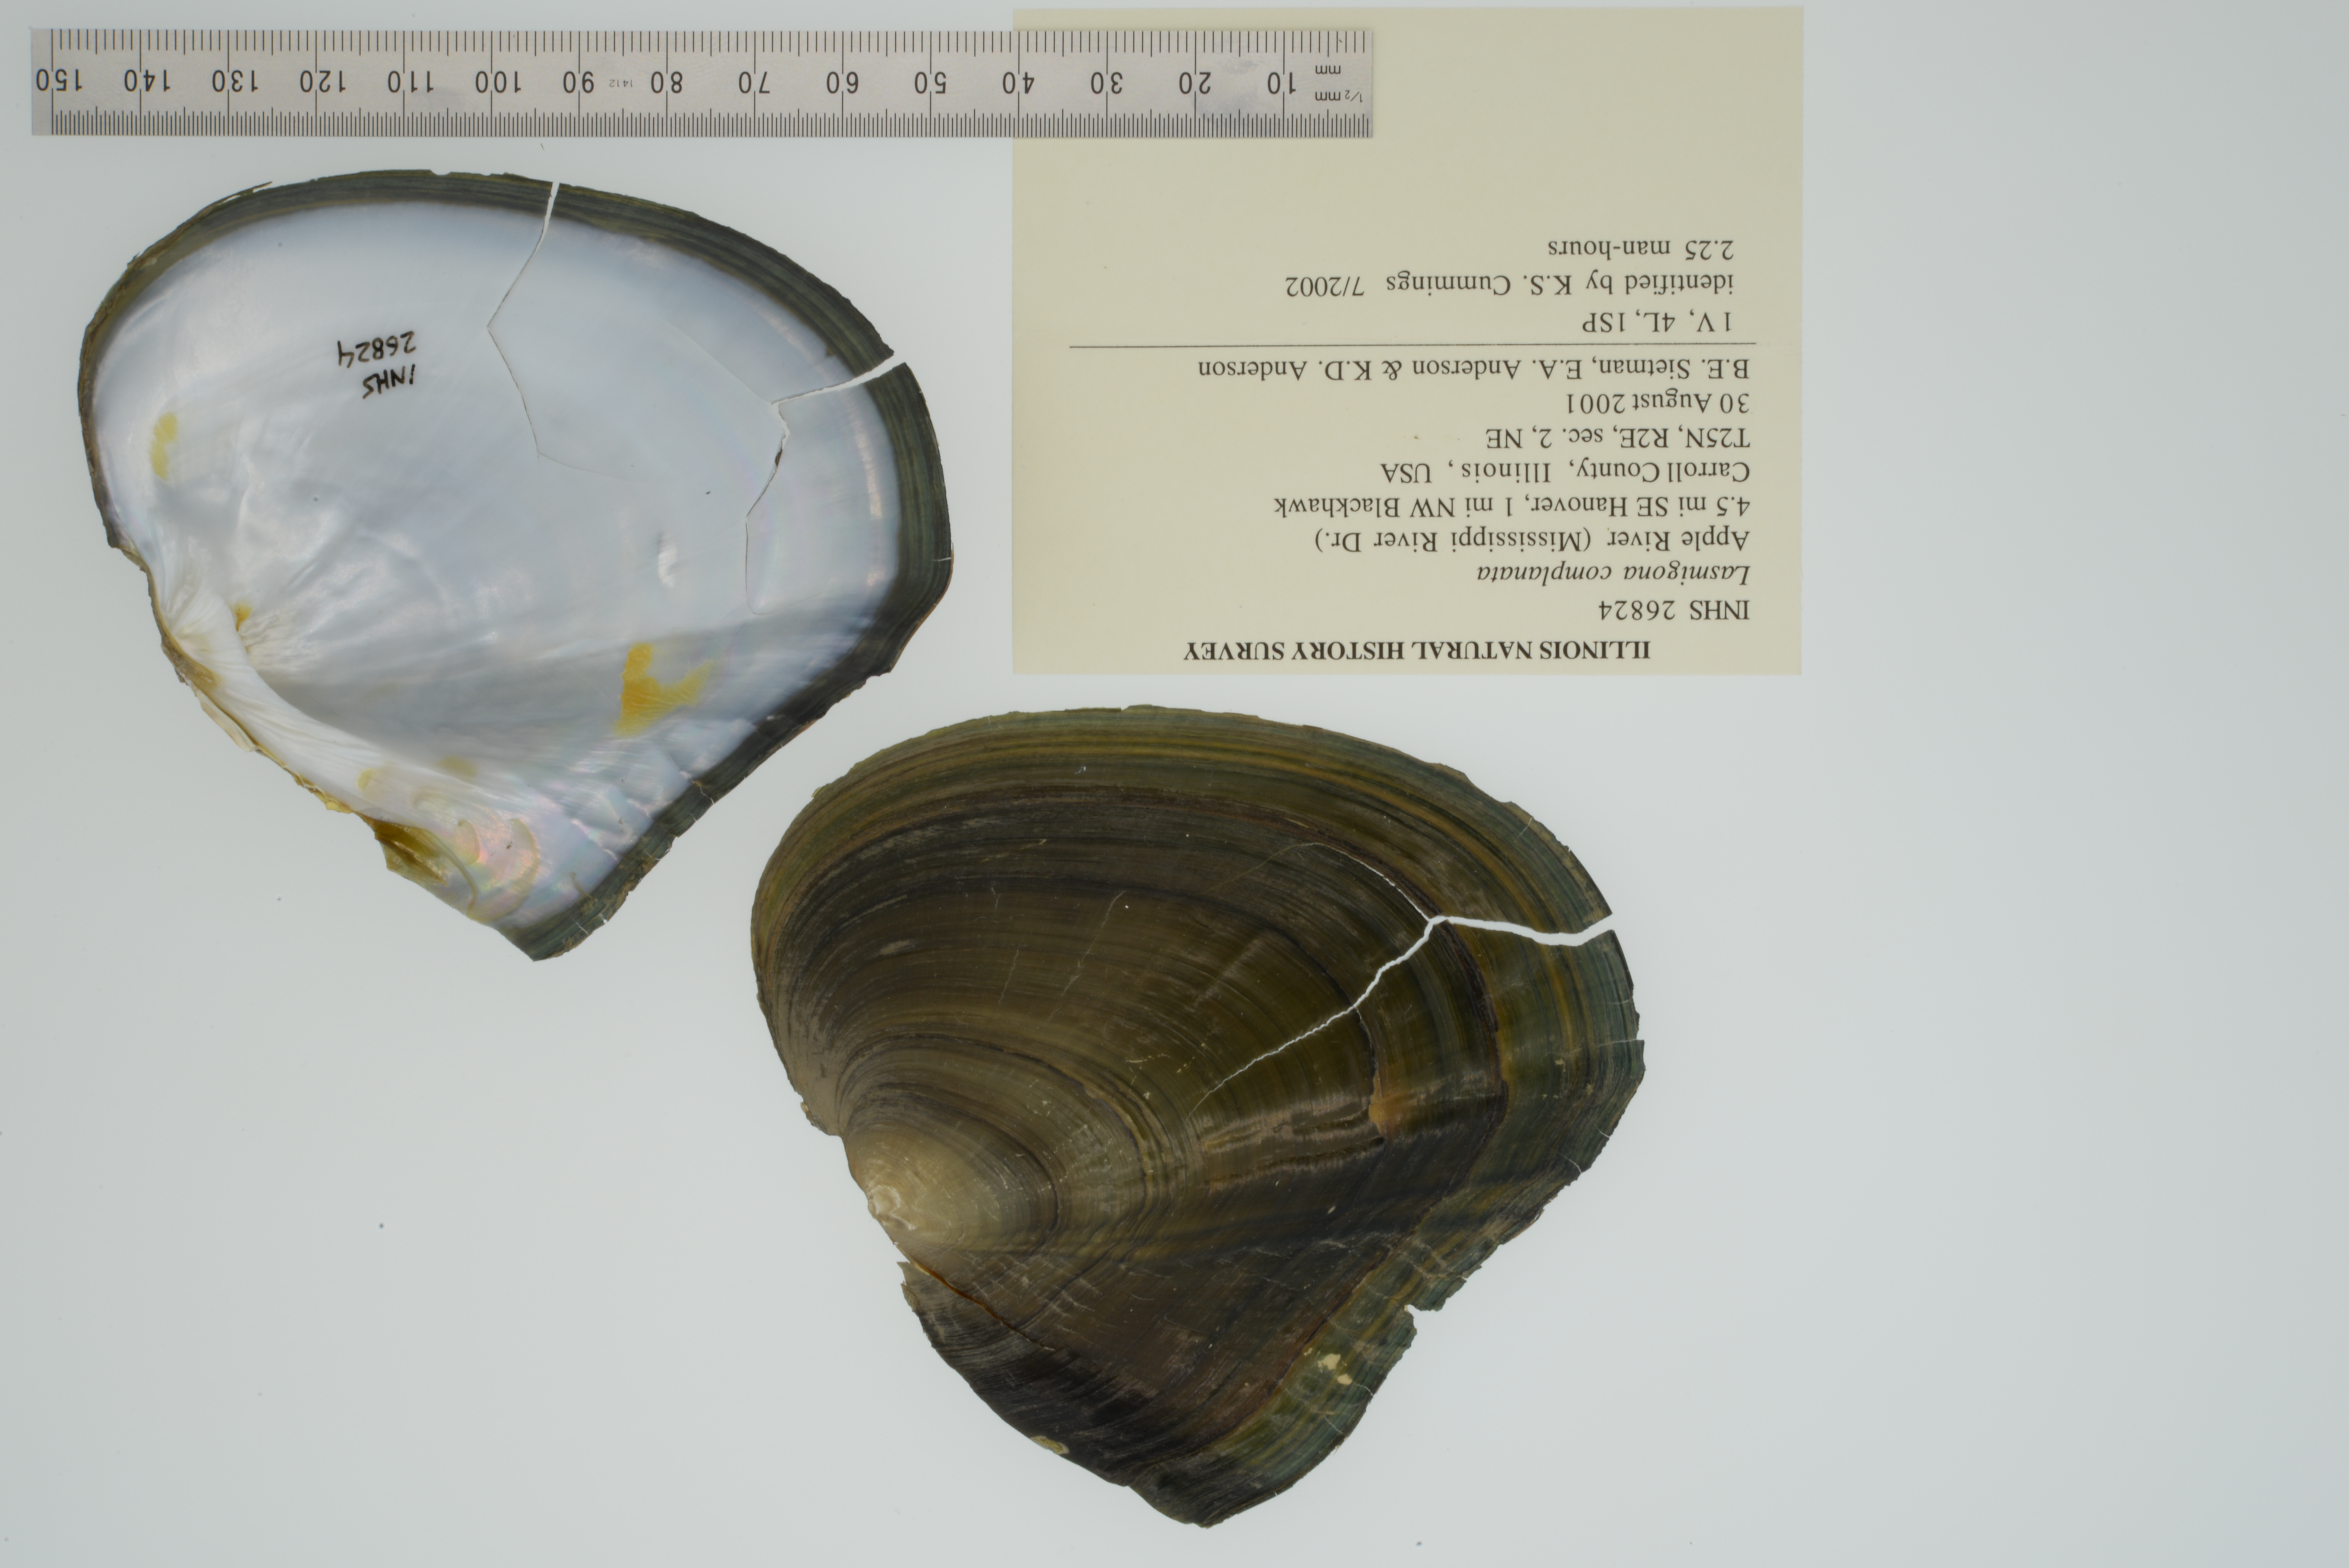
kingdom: Animalia
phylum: Mollusca
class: Bivalvia
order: Unionida
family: Unionidae
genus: Lasmigona
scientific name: Lasmigona complanata
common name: White heelsplitter
